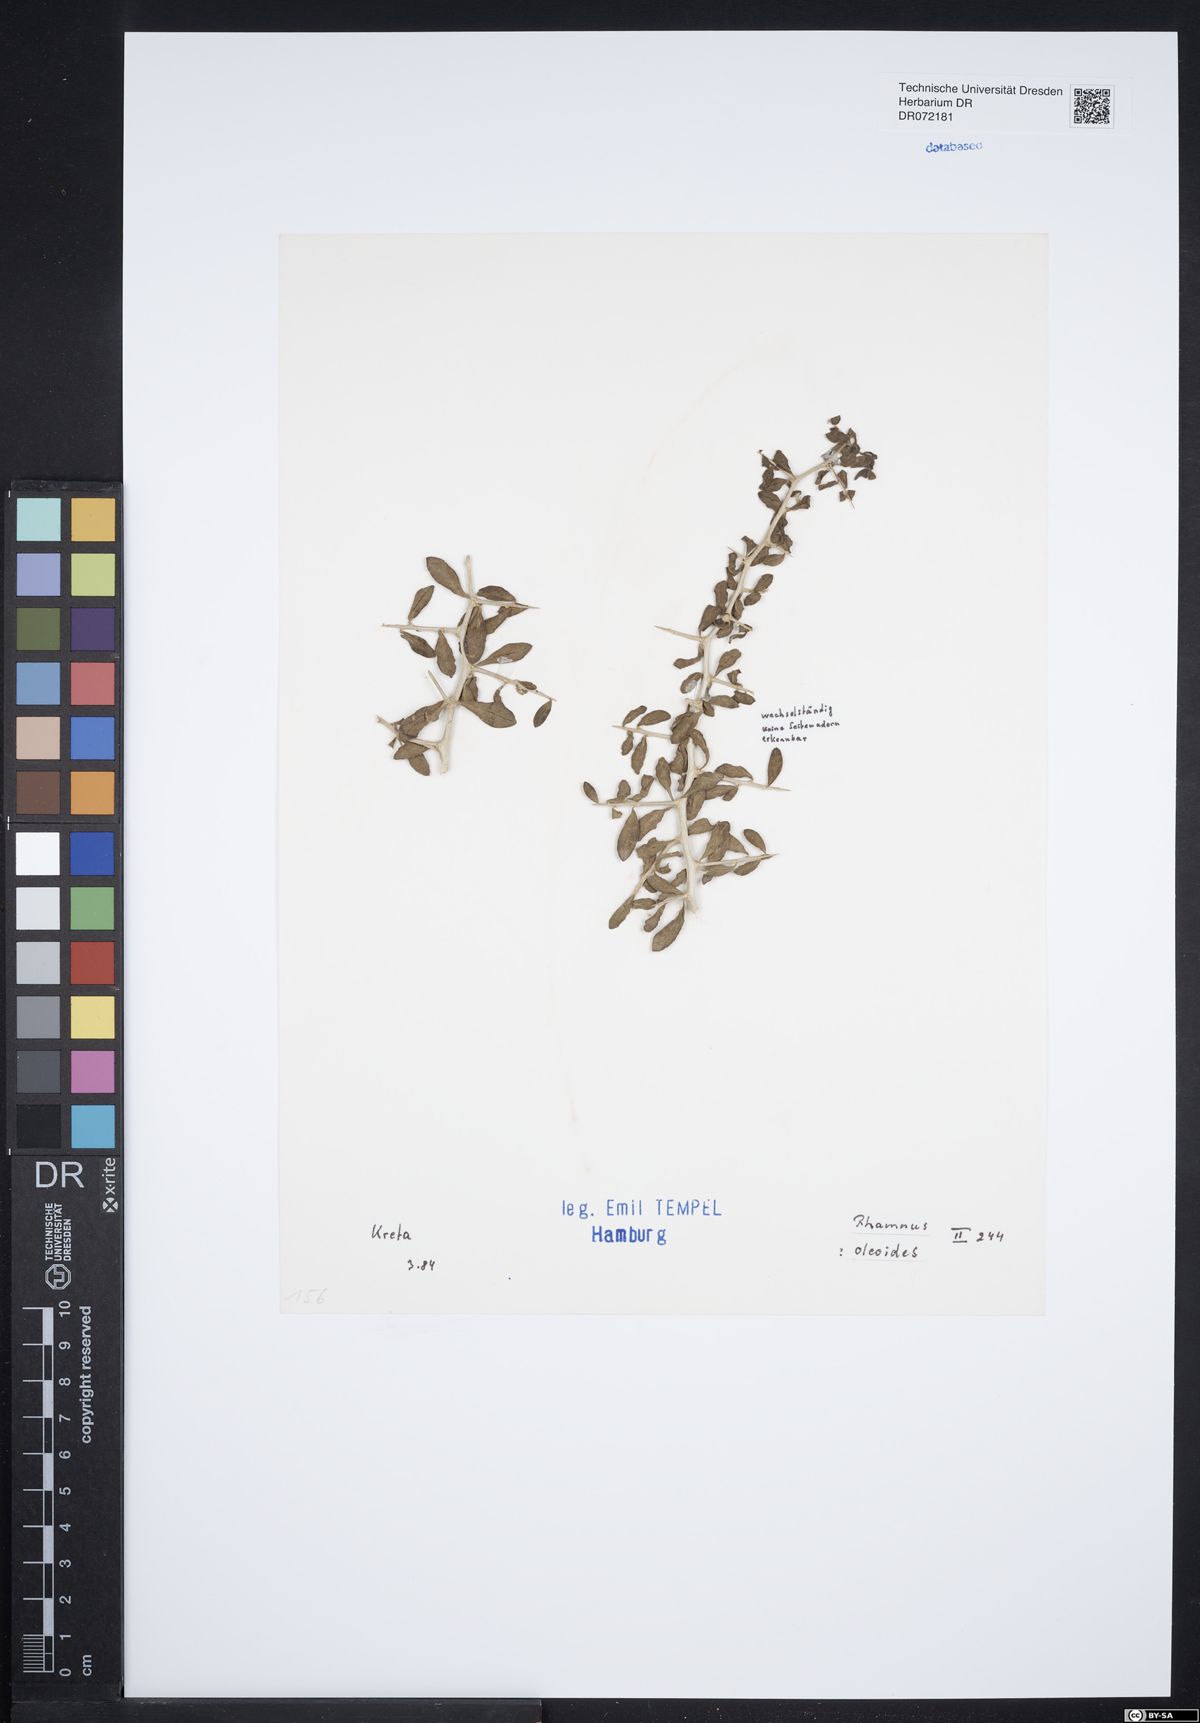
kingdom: Plantae
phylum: Tracheophyta
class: Magnoliopsida
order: Rosales
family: Rhamnaceae
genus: Rhamnus
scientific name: Rhamnus oleoides
